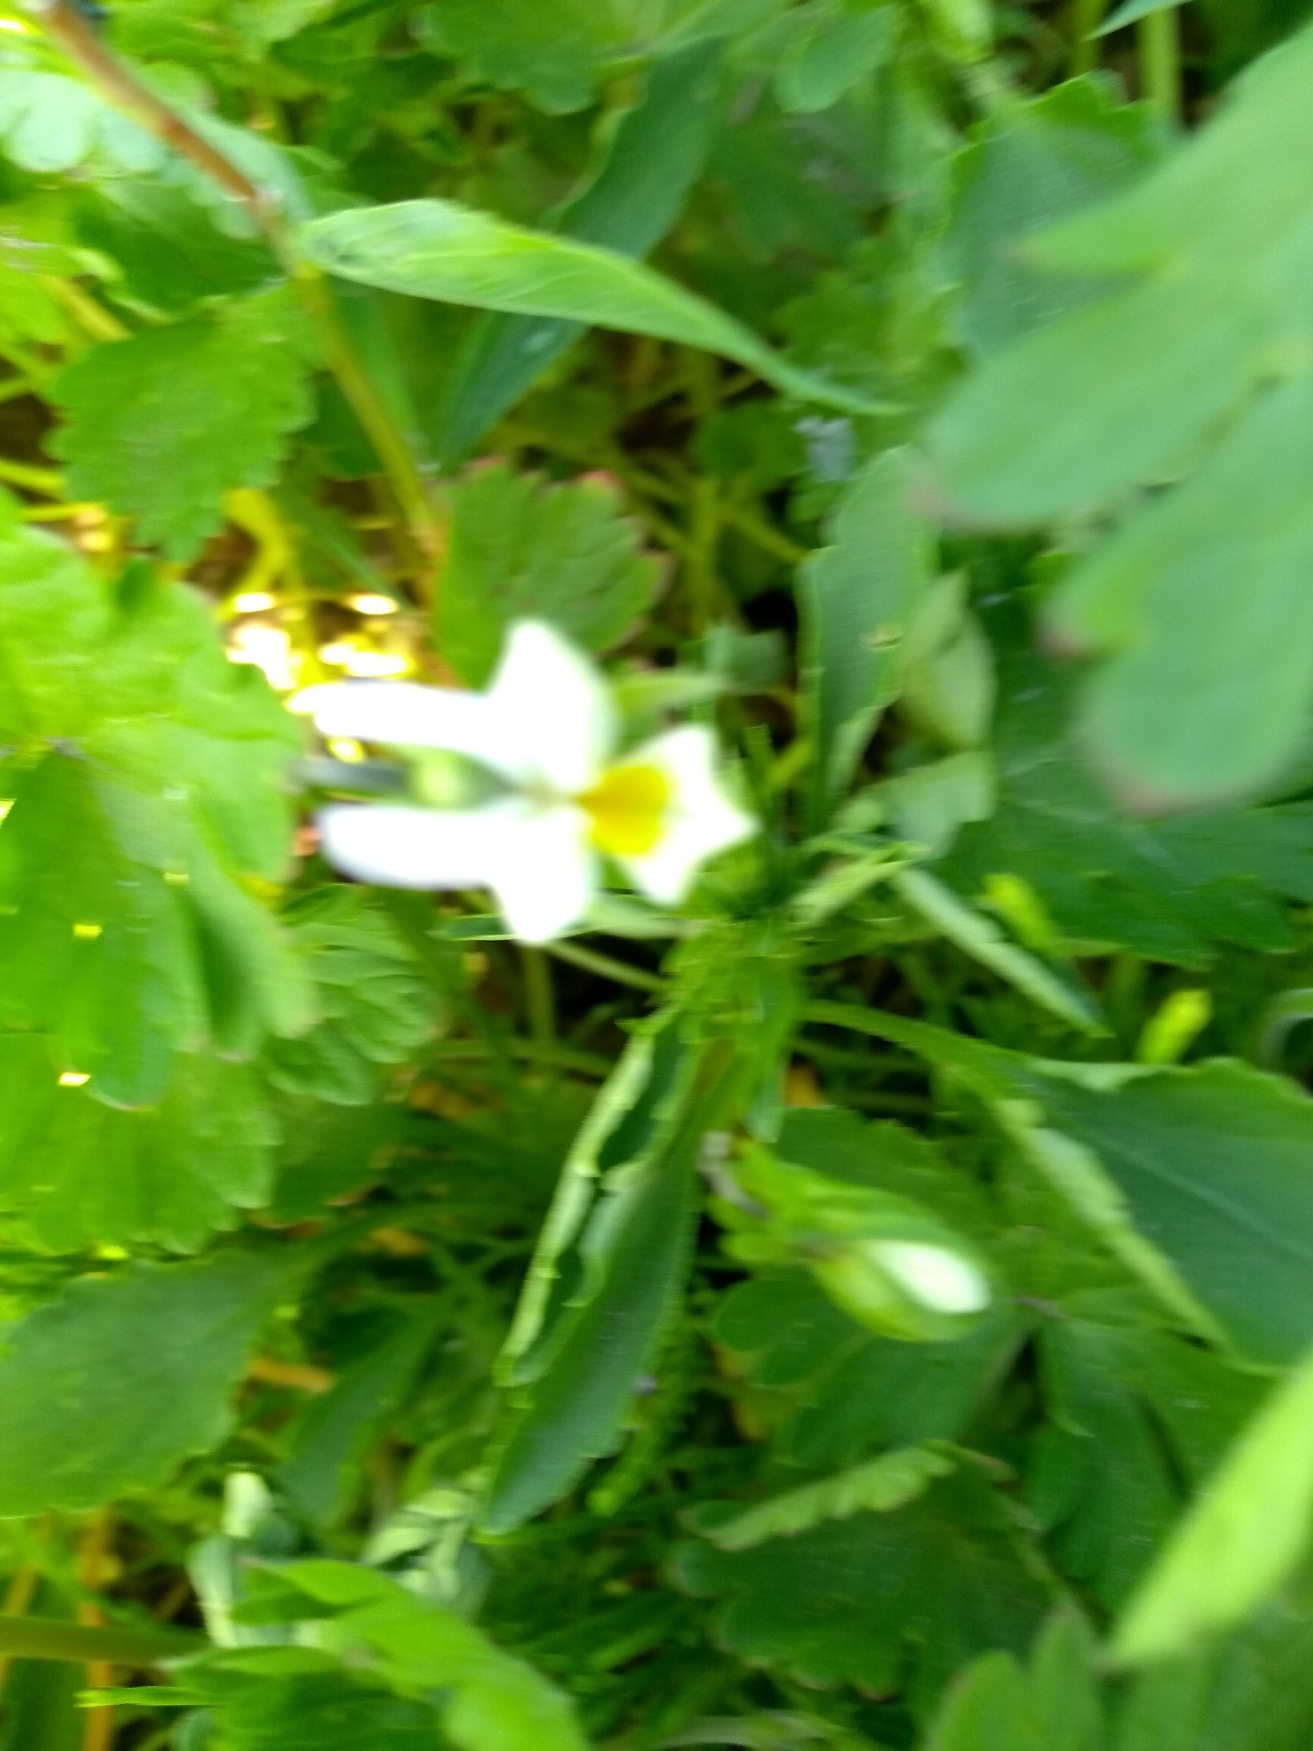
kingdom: Plantae
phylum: Tracheophyta
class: Magnoliopsida
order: Malpighiales
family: Violaceae
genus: Viola
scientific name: Viola arvensis
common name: Ager-stedmoderblomst
